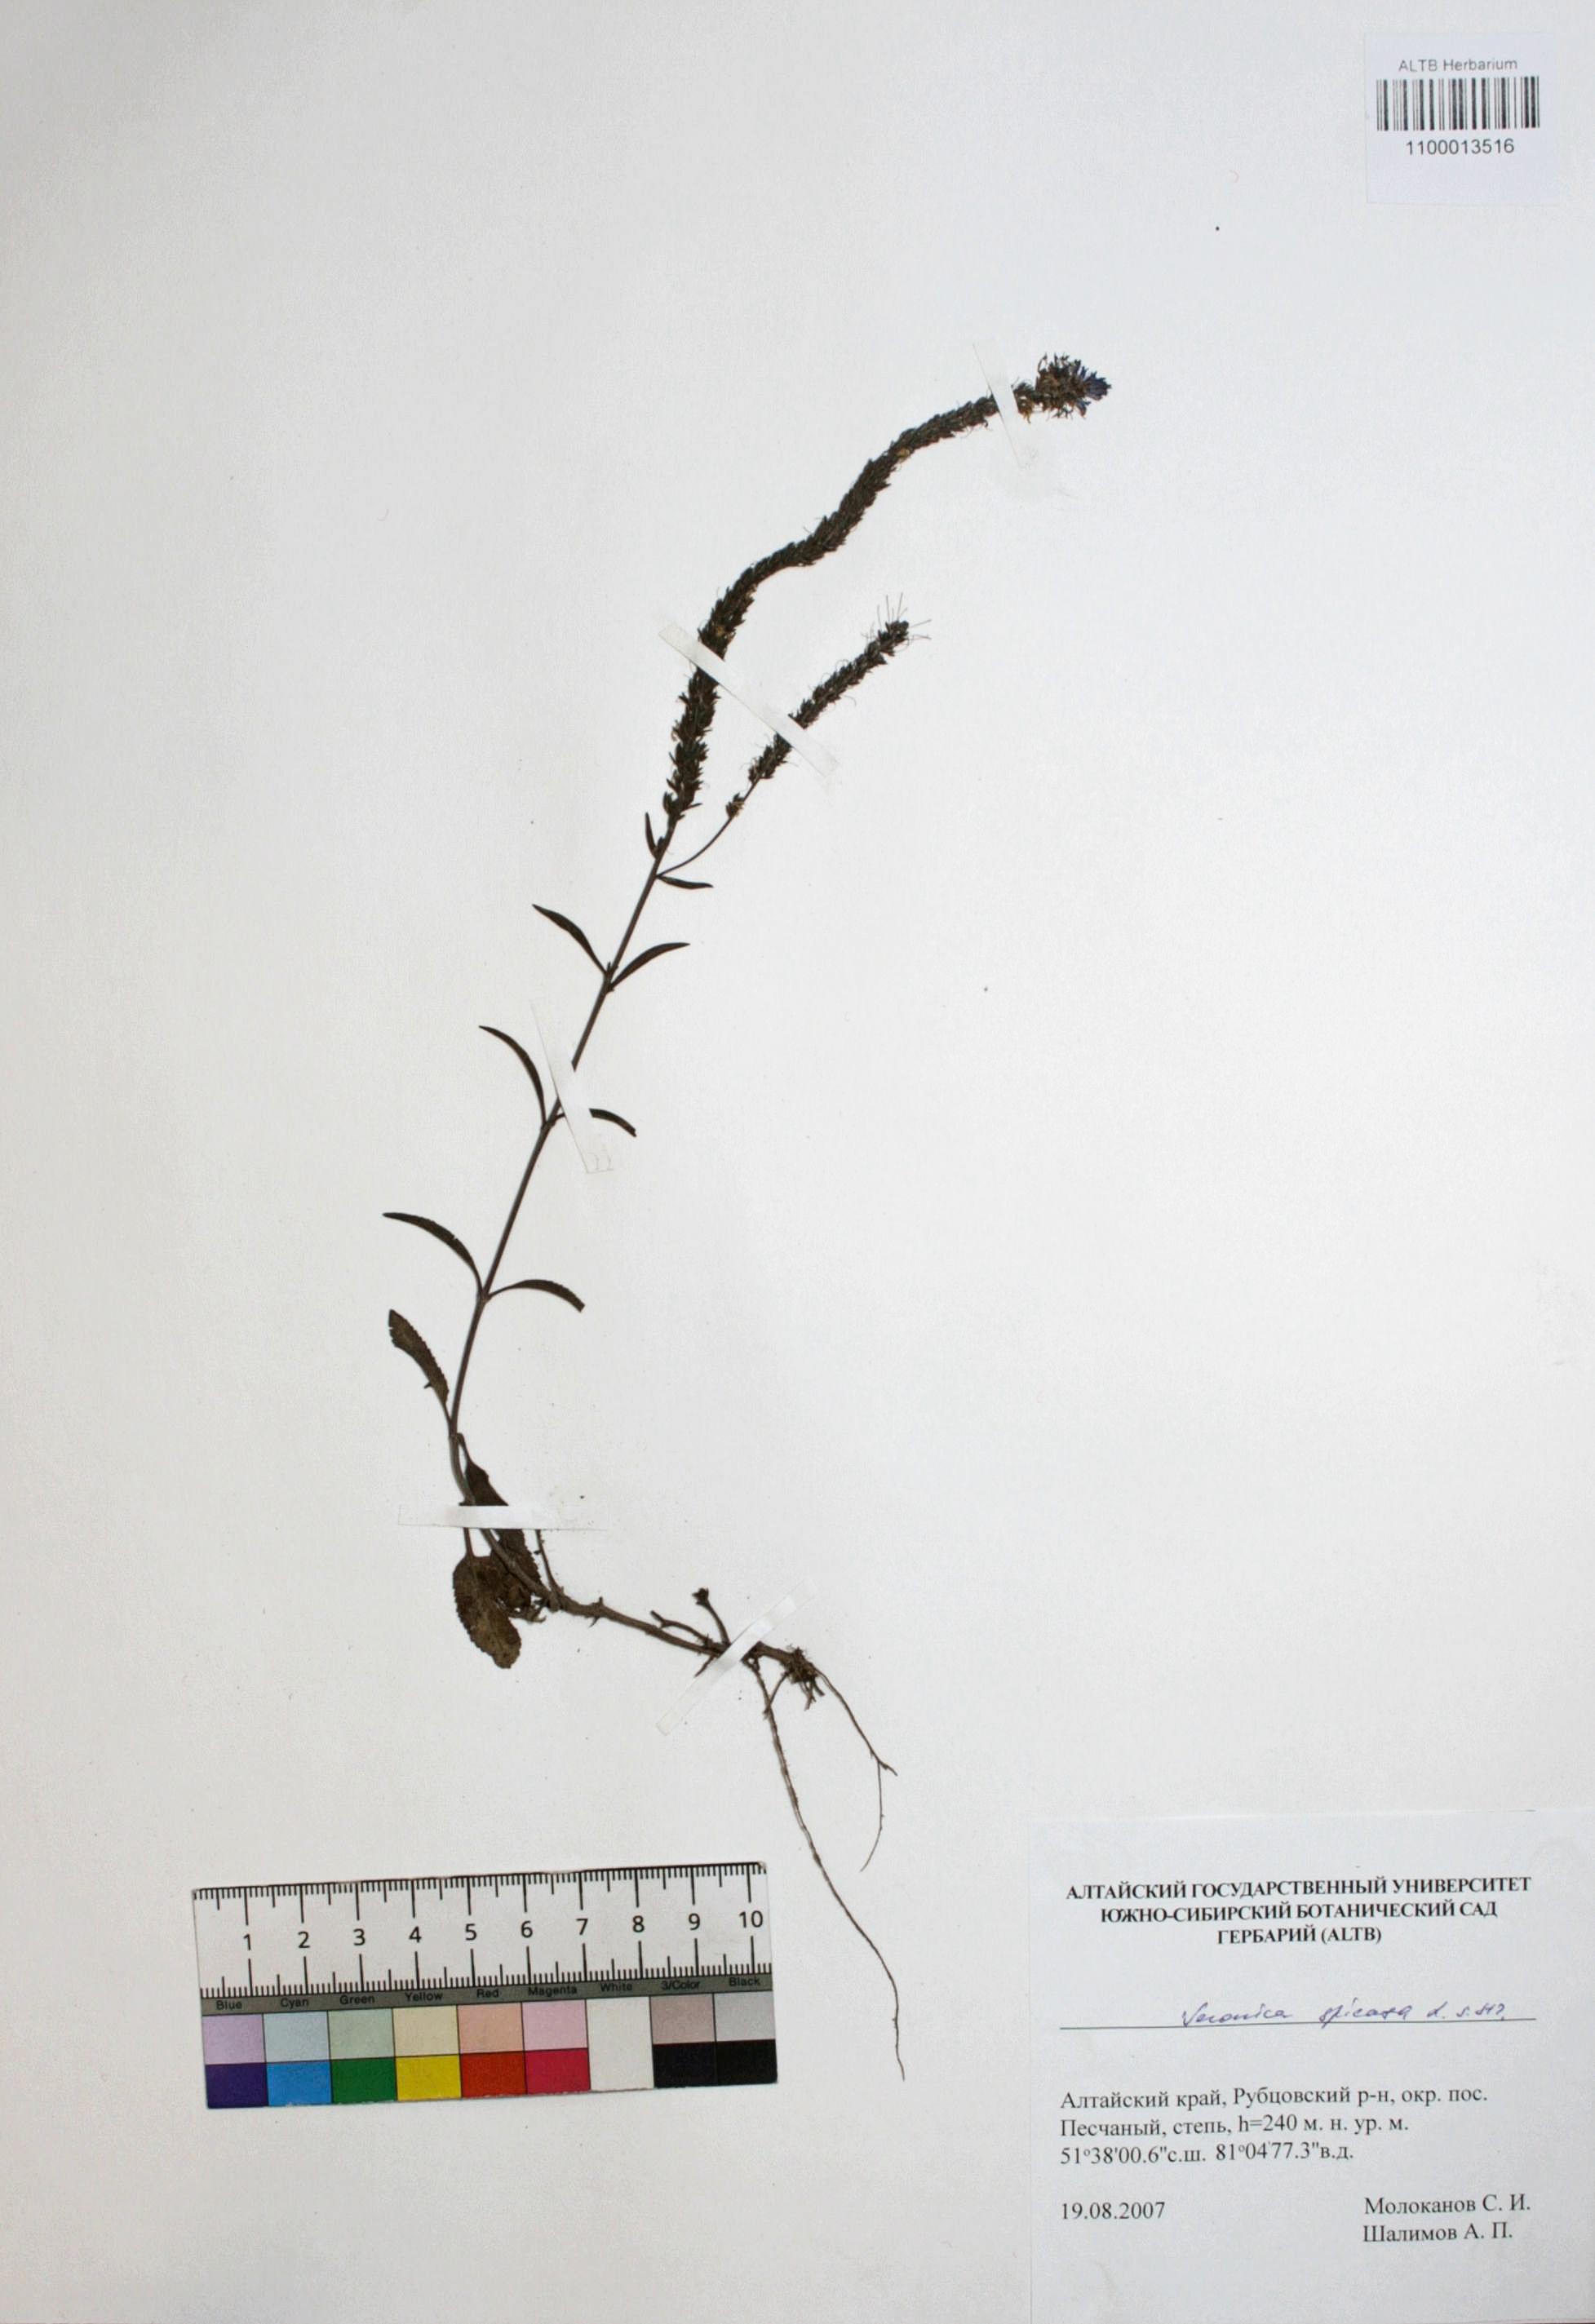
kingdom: Plantae
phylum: Tracheophyta
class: Magnoliopsida
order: Lamiales
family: Plantaginaceae
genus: Veronica
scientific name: Veronica spicata
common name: Spiked speedwell
